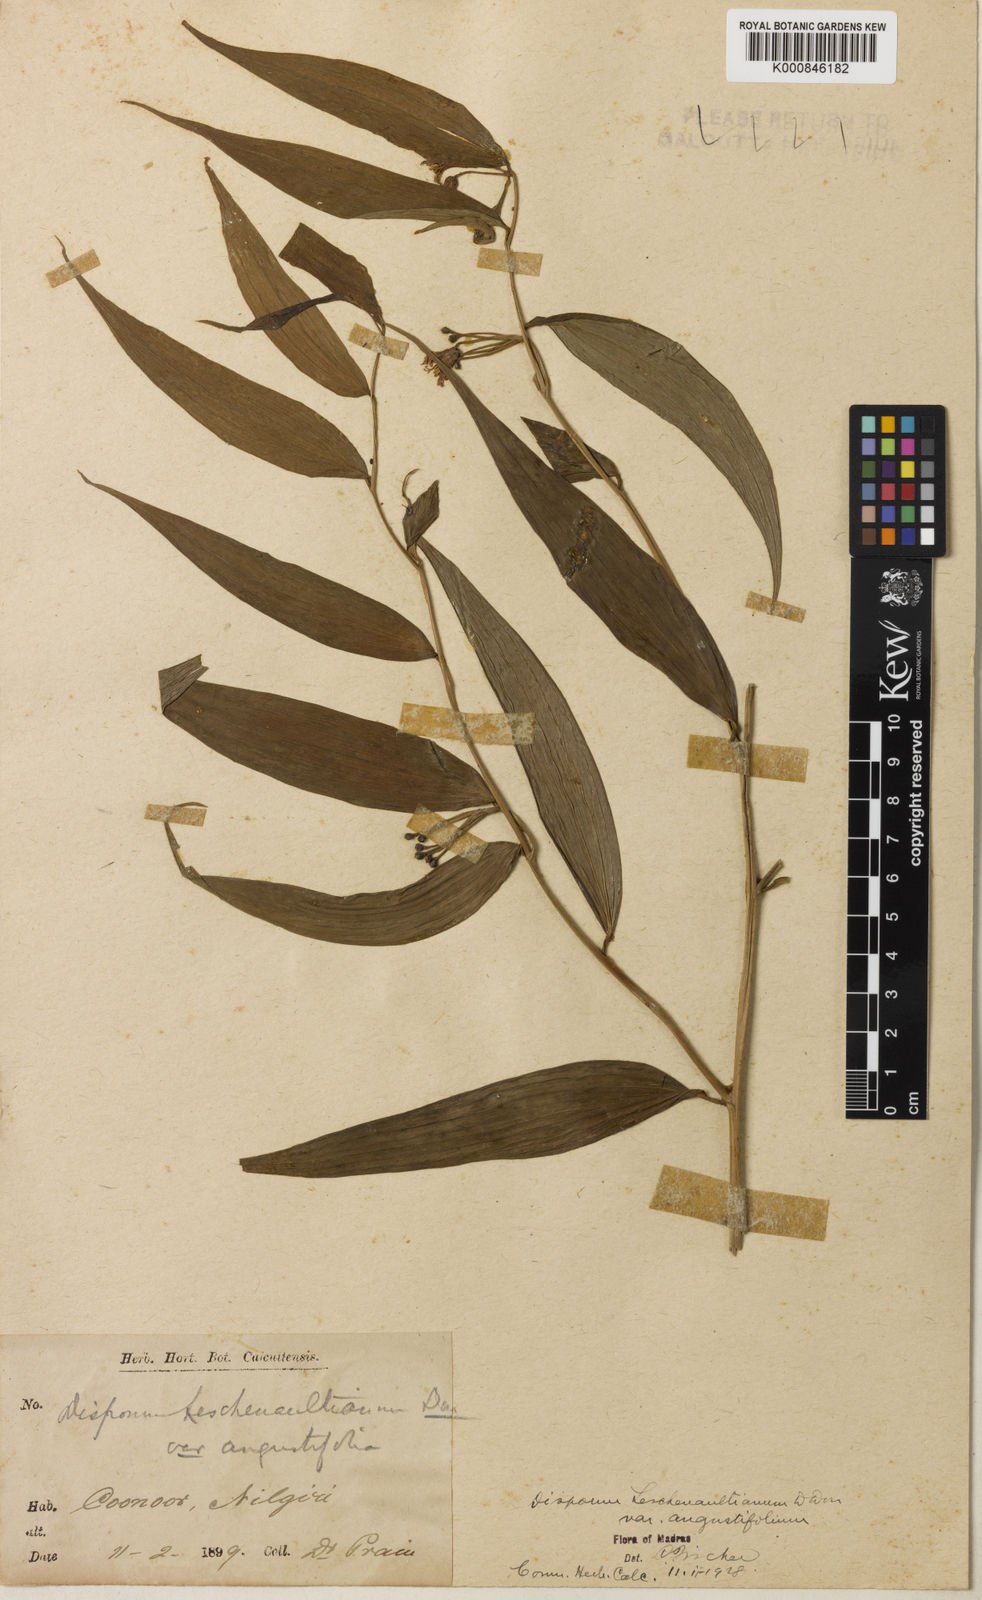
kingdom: Plantae
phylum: Tracheophyta
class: Liliopsida
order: Liliales
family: Colchicaceae
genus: Disporum
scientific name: Disporum cantoniense
